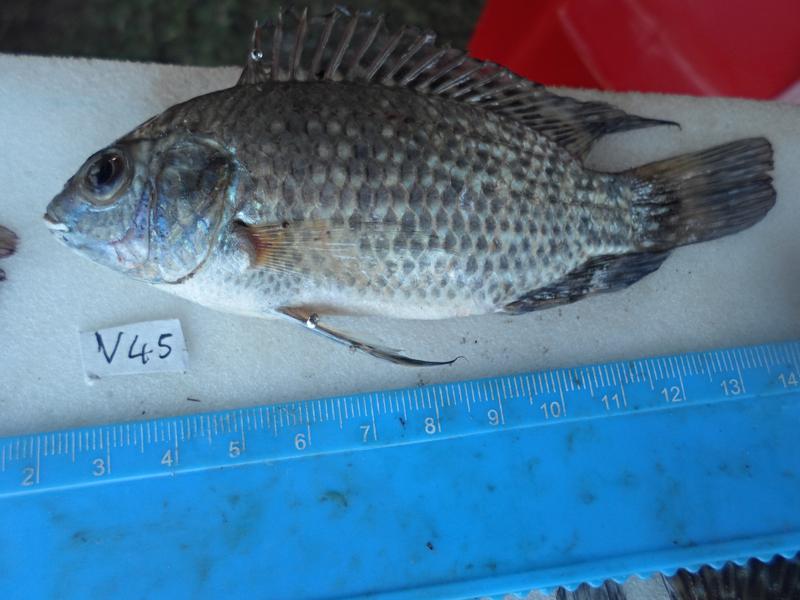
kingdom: Animalia
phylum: Chordata
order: Perciformes
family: Cichlidae
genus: Oreochromis
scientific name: Oreochromis leucostictus
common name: Blue spotted tilapia
